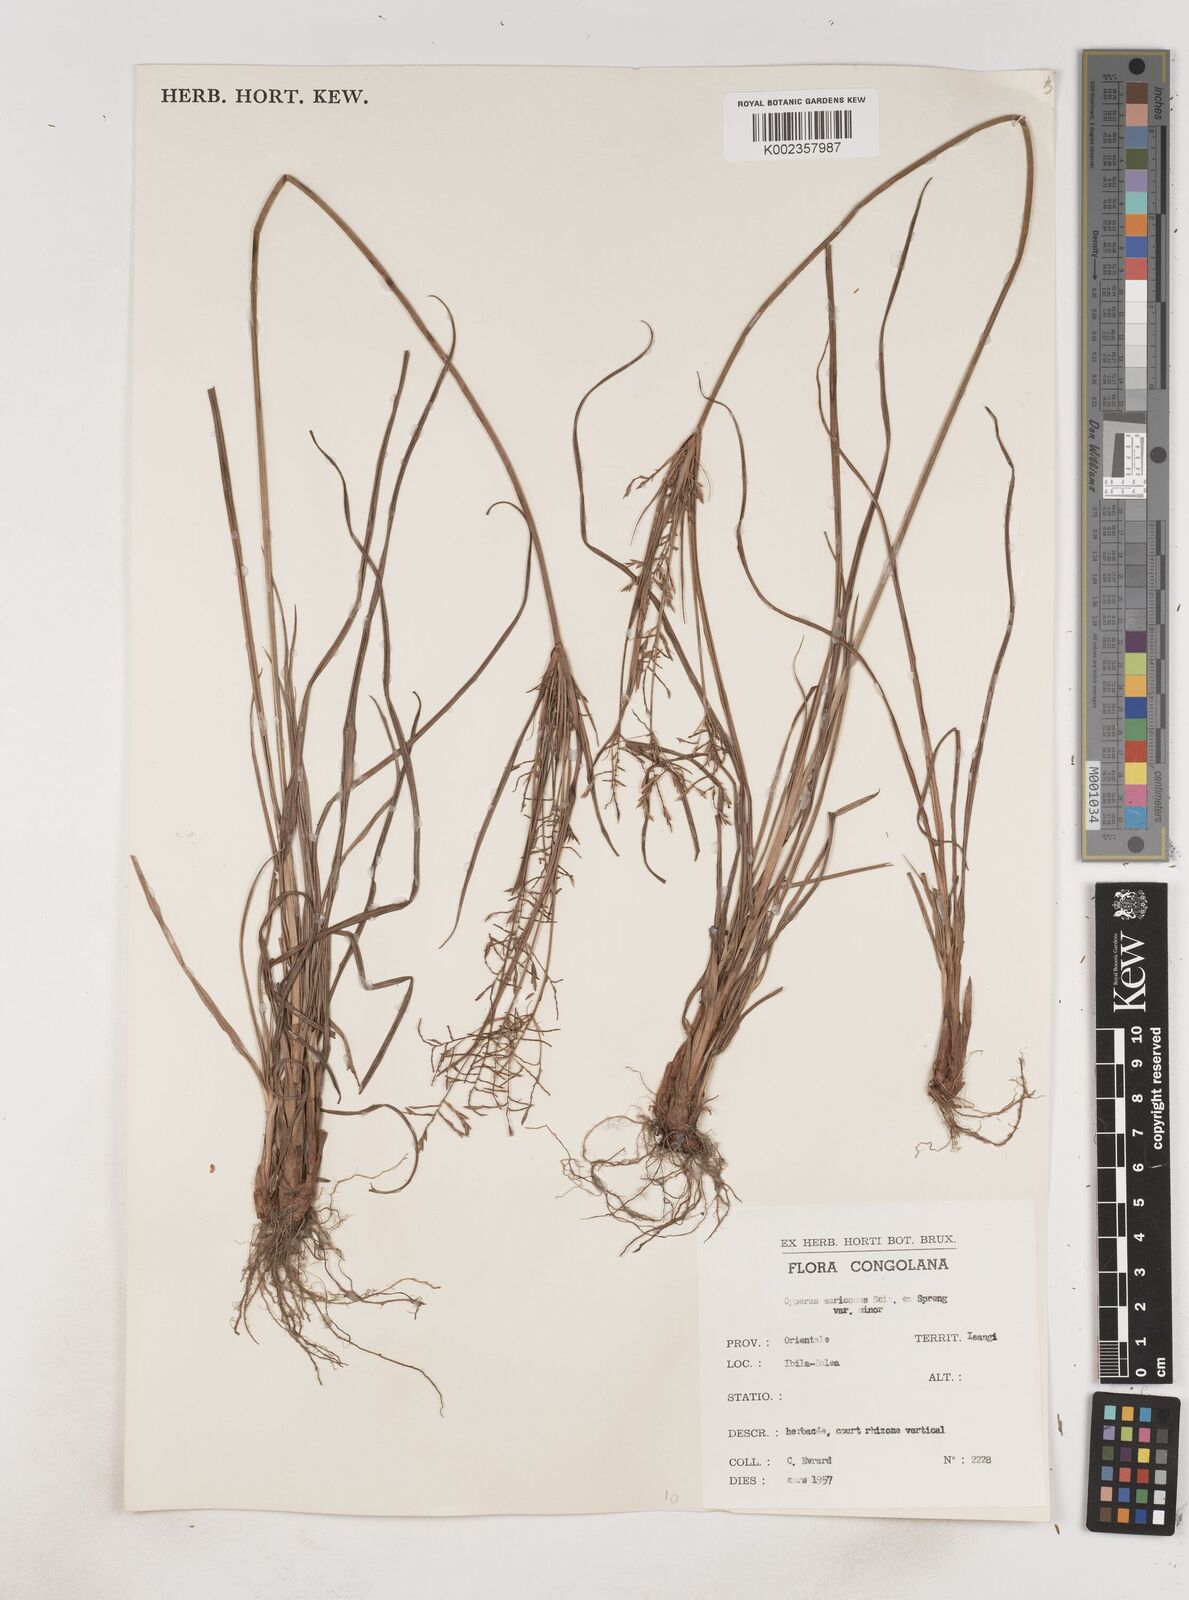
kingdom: Plantae
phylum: Tracheophyta
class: Liliopsida
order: Poales
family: Cyperaceae
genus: Cyperus
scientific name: Cyperus digitatus
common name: Finger flatsedge
